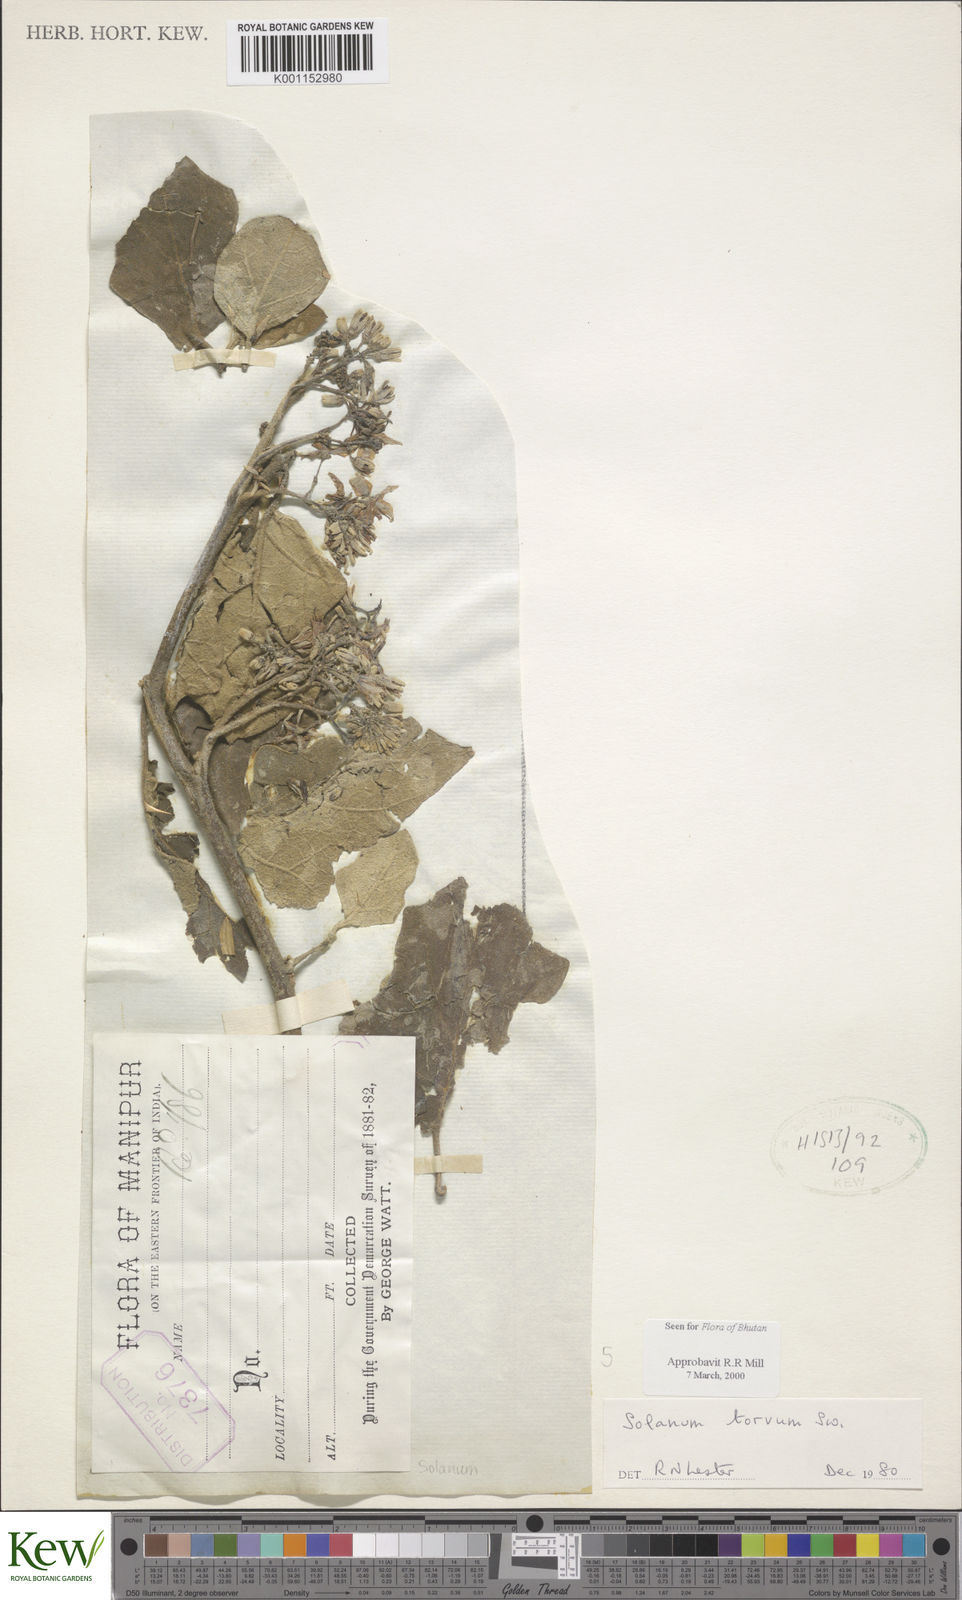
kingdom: Plantae
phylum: Tracheophyta
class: Magnoliopsida
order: Solanales
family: Solanaceae
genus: Solanum
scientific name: Solanum torvum
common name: Turkey berry
